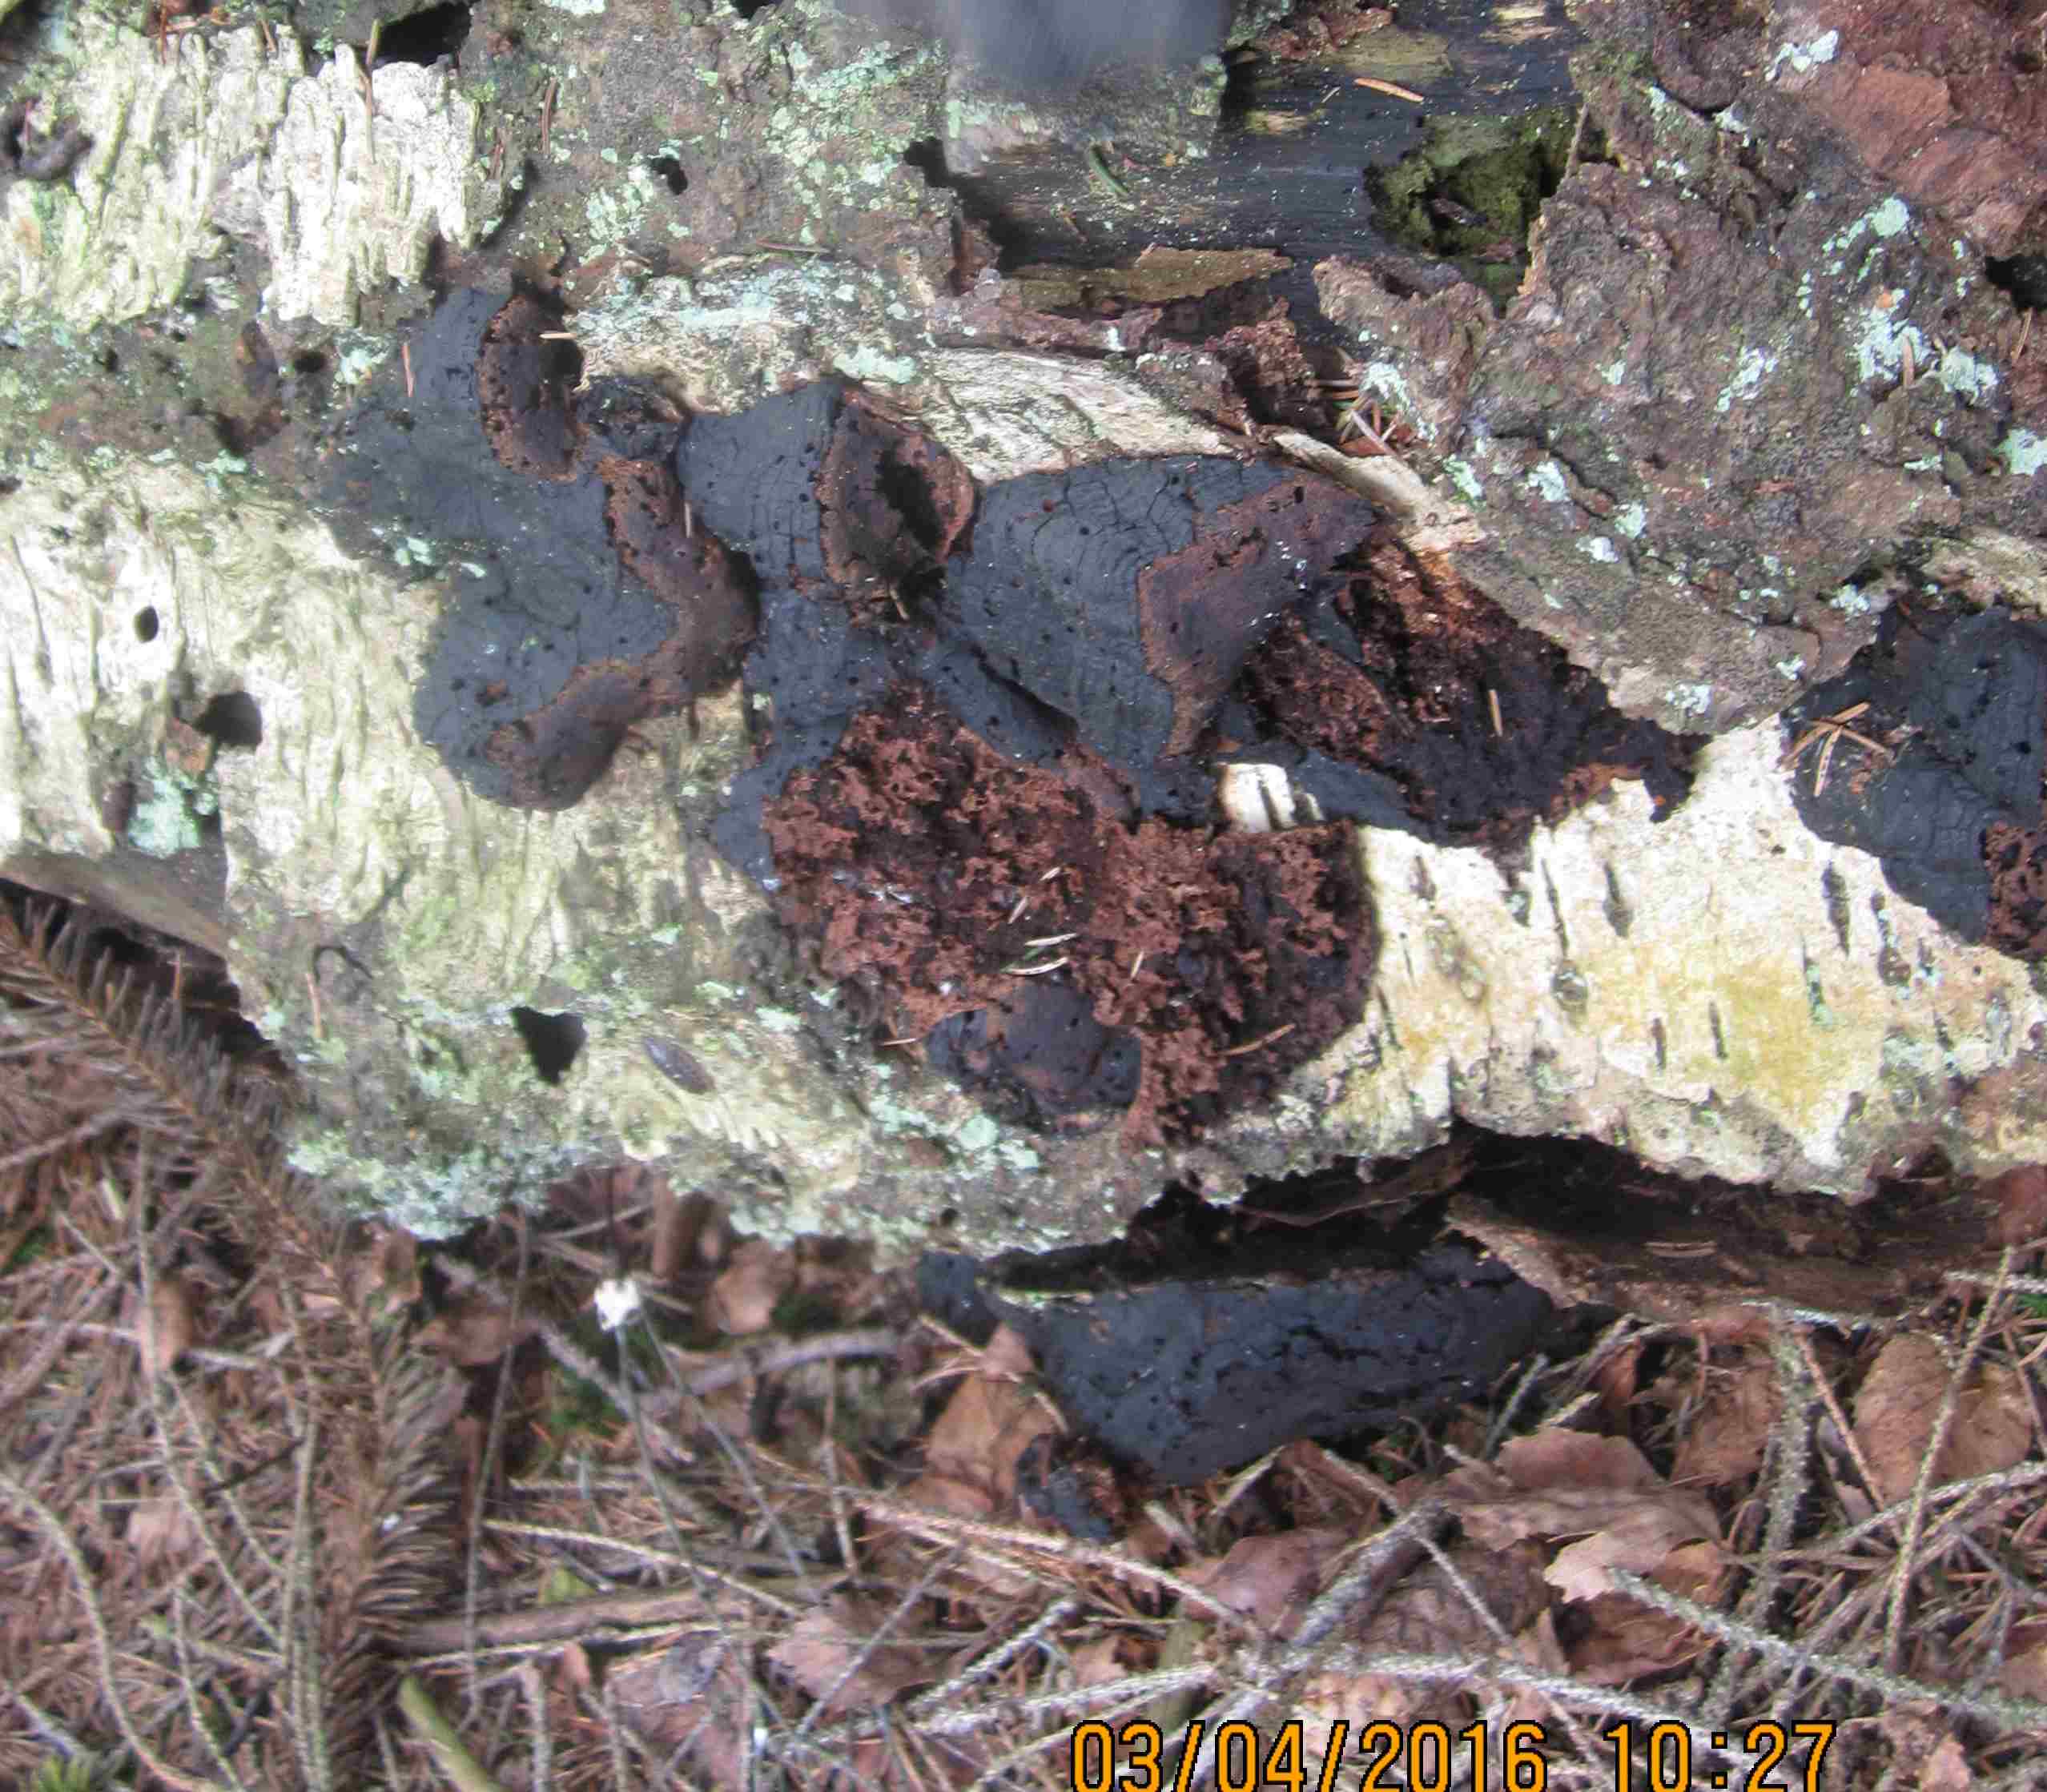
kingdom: Fungi
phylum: Basidiomycota
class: Agaricomycetes
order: Hymenochaetales
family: Hymenochaetaceae
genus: Phellinus
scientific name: Phellinus lundellii
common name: birke-ildporesvamp
